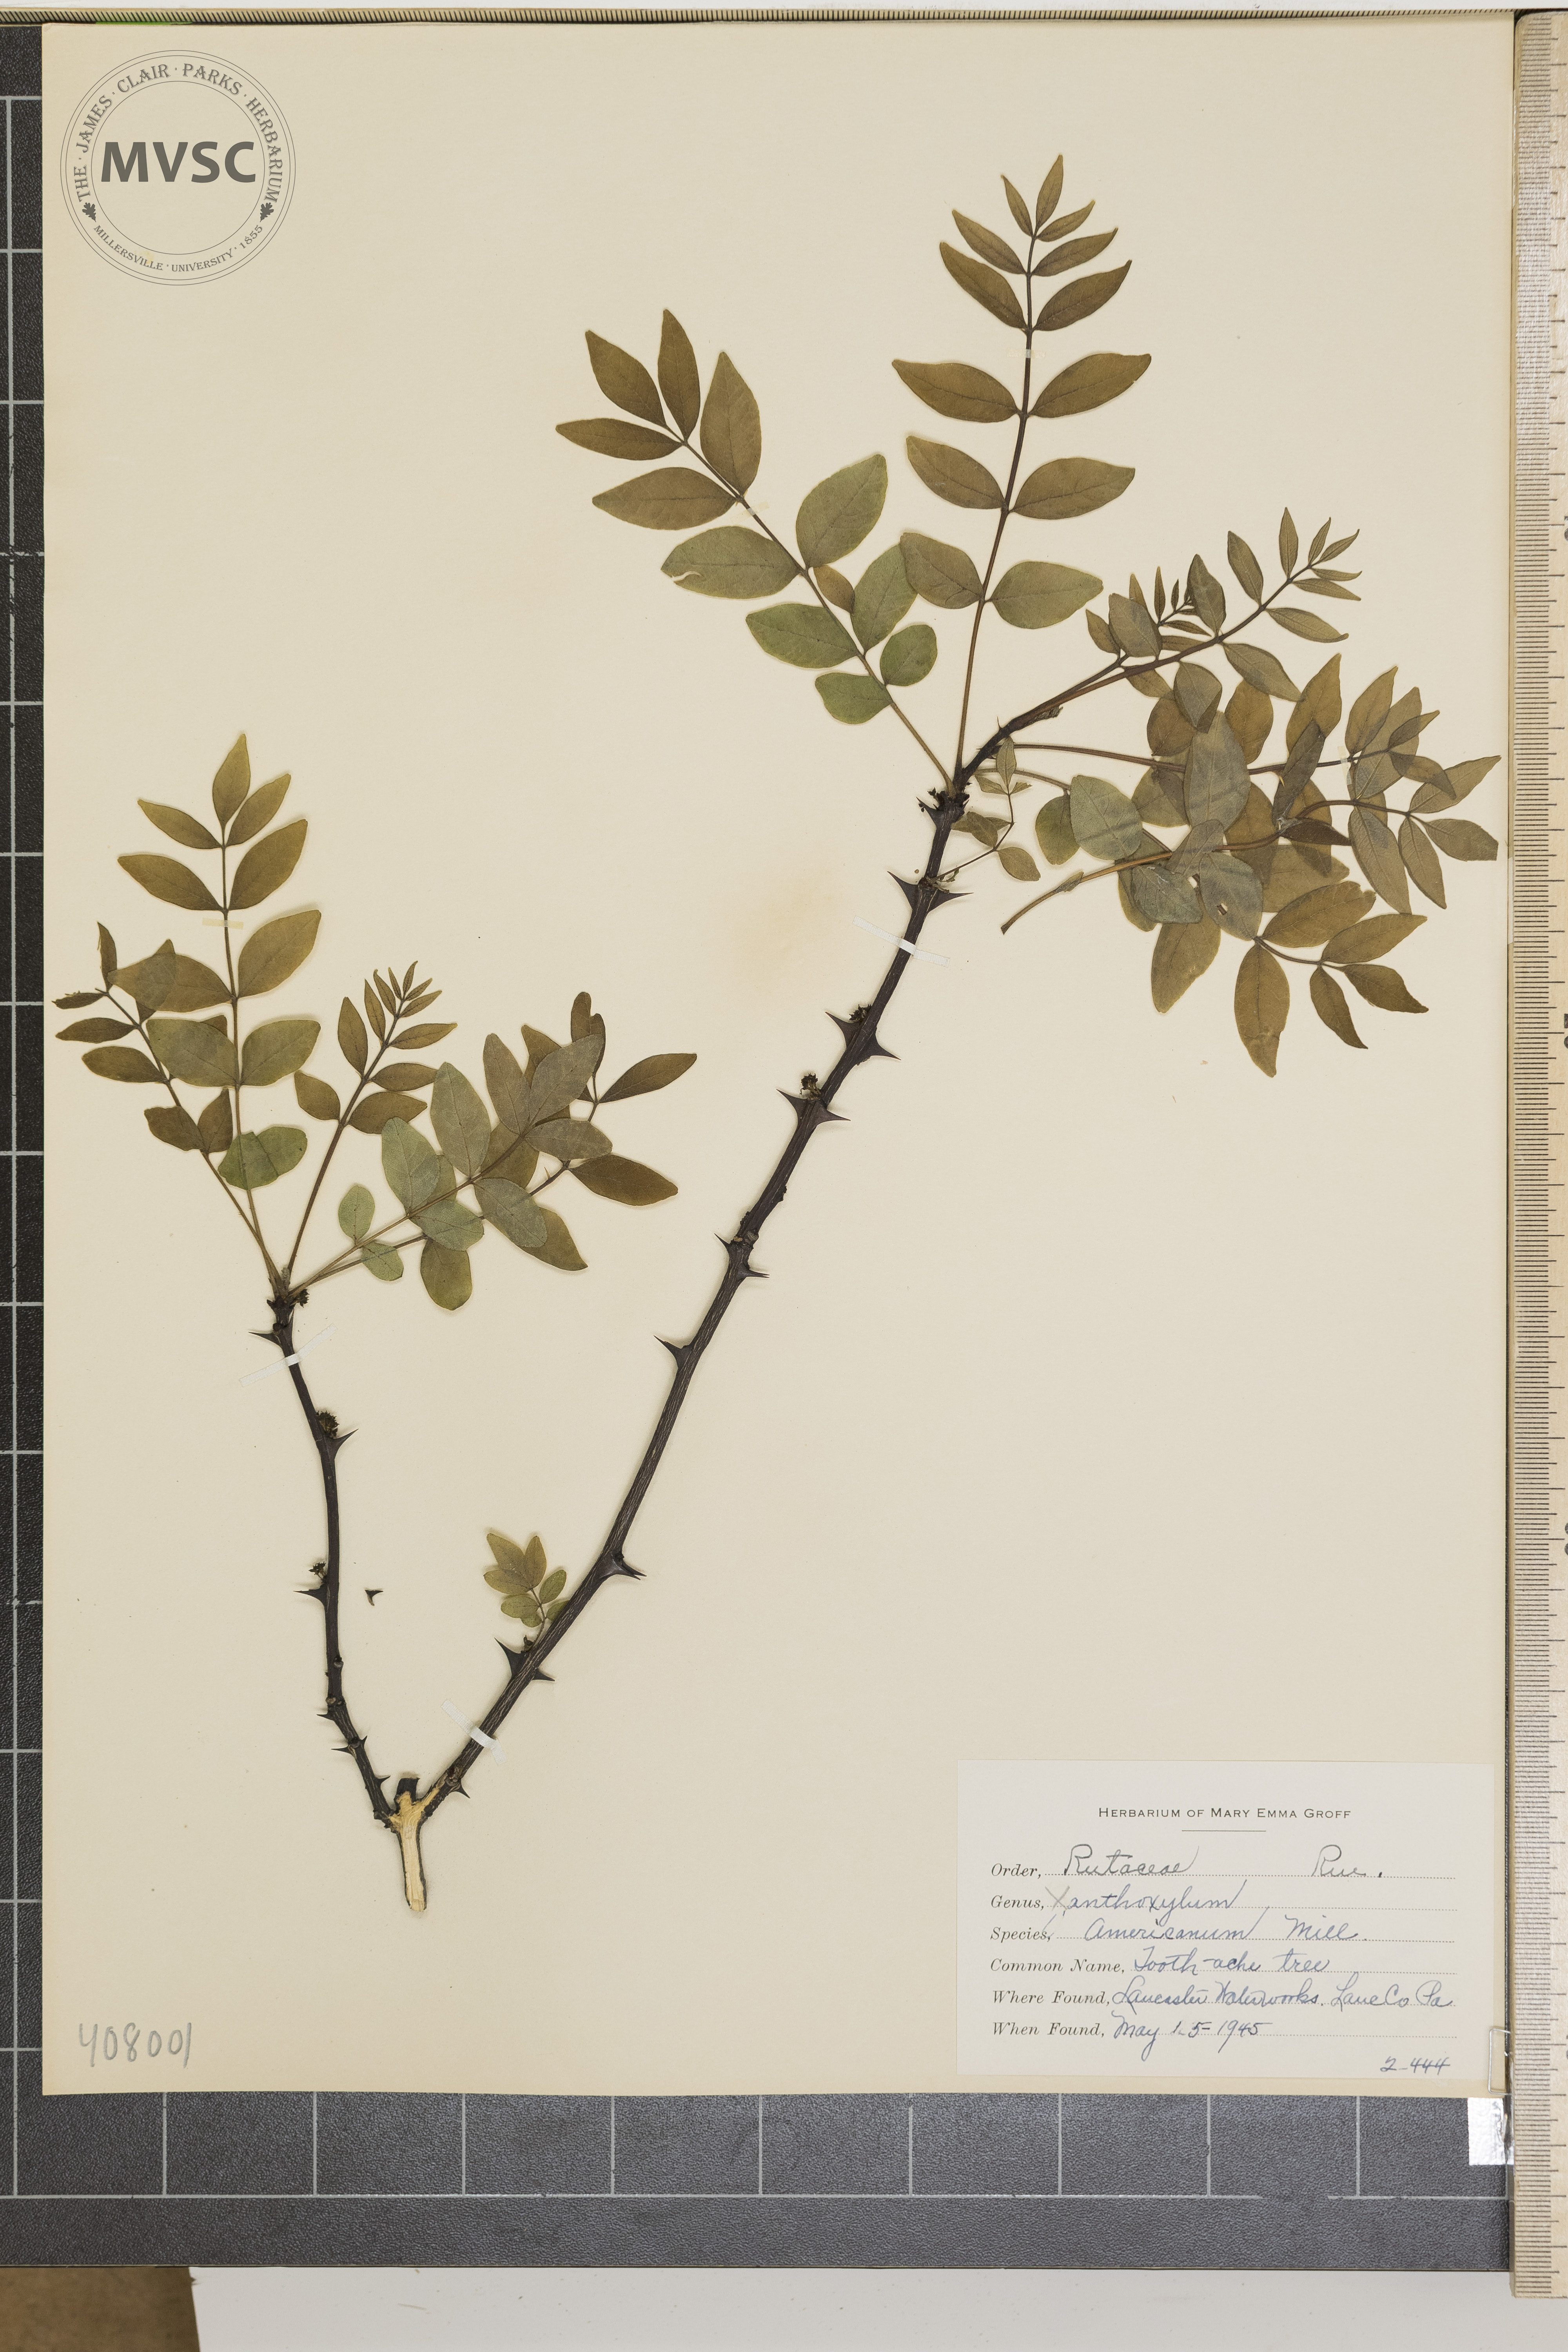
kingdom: Plantae
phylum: Tracheophyta
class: Magnoliopsida
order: Sapindales
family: Rutaceae
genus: Zanthoxylum
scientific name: Zanthoxylum americanum
